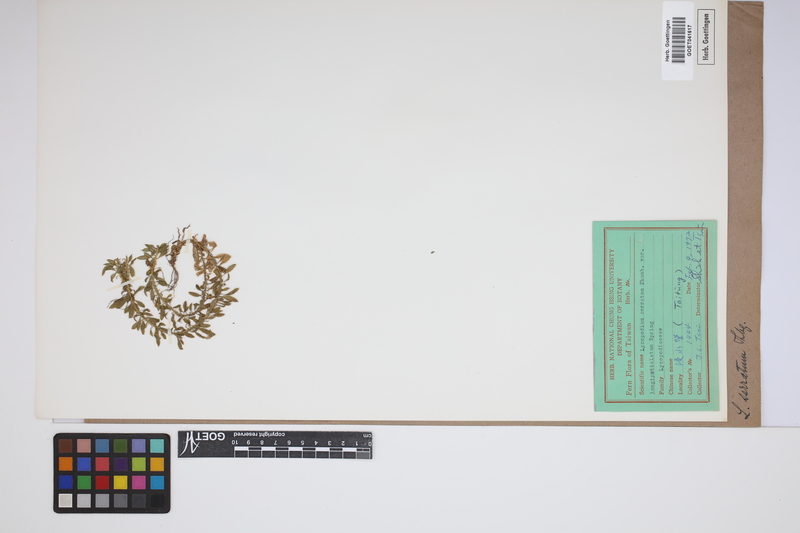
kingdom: Plantae
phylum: Tracheophyta
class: Lycopodiopsida
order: Lycopodiales
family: Lycopodiaceae
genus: Huperzia
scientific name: Huperzia serrata
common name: Toothed club-moss
